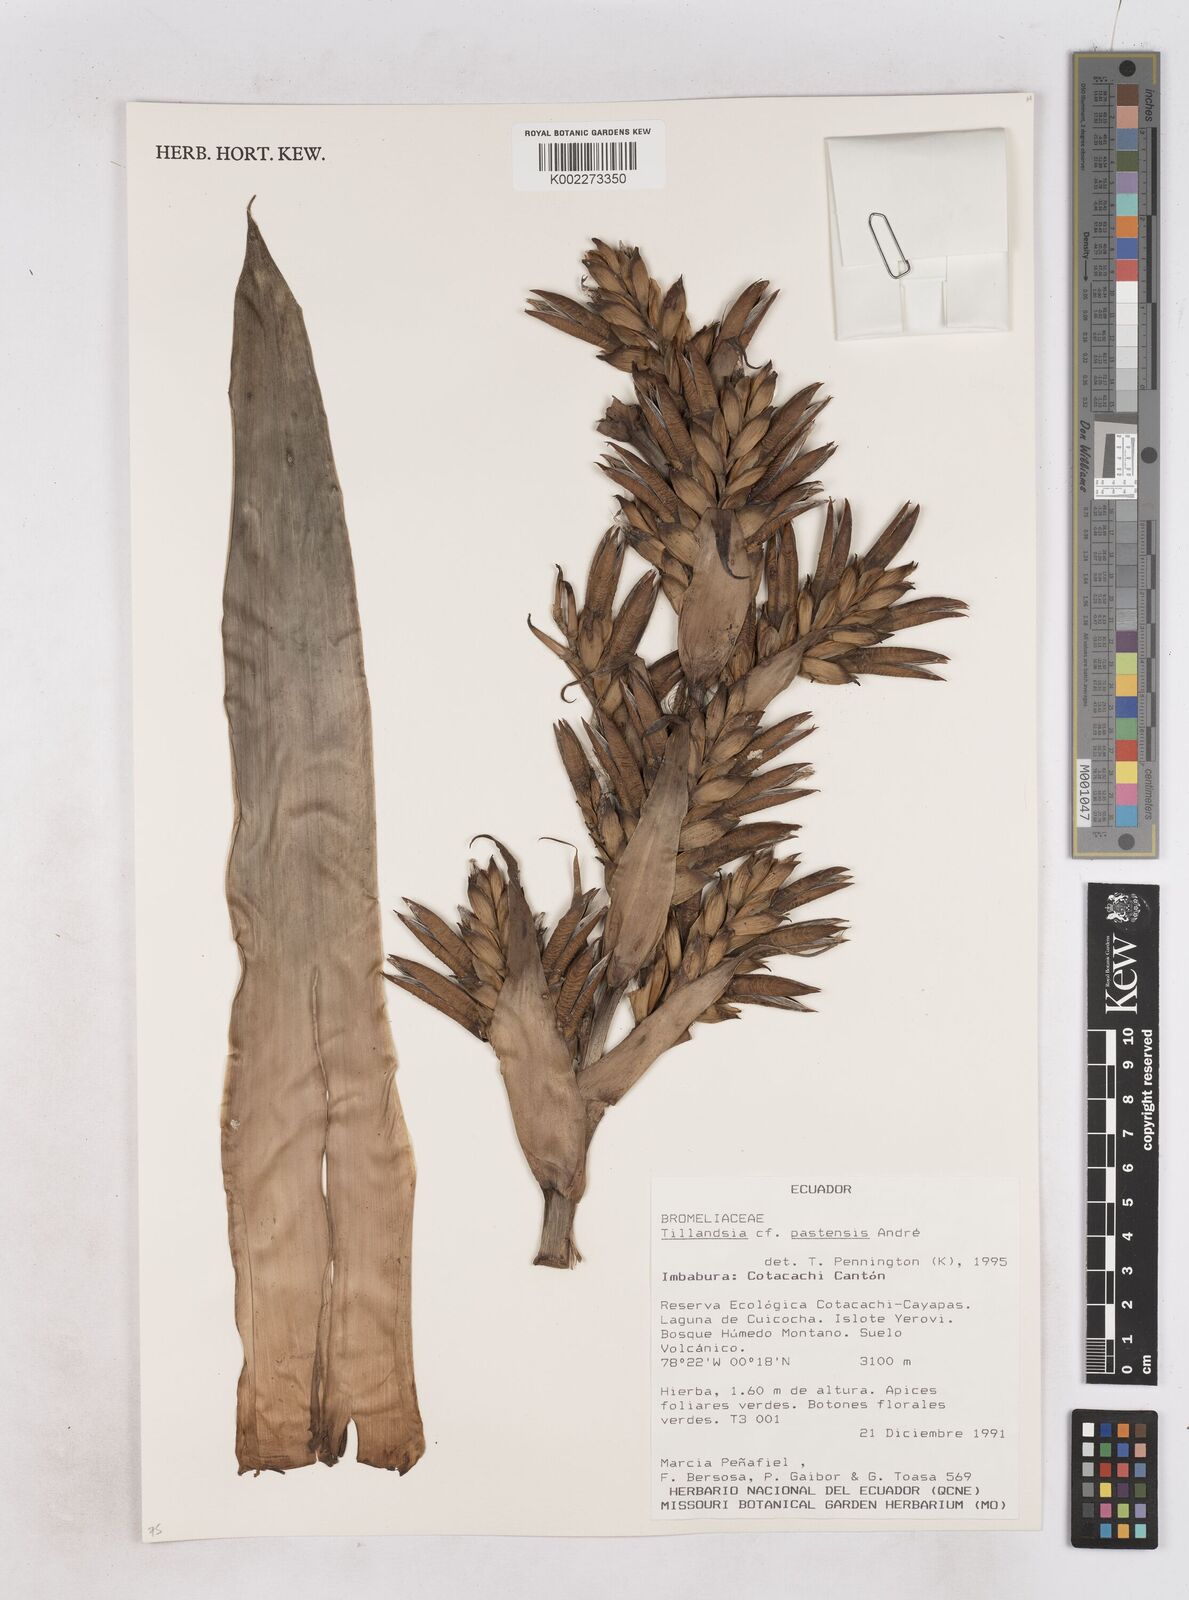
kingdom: Plantae
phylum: Tracheophyta
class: Liliopsida
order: Poales
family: Bromeliaceae
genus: Tillandsia
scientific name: Tillandsia pastensis
